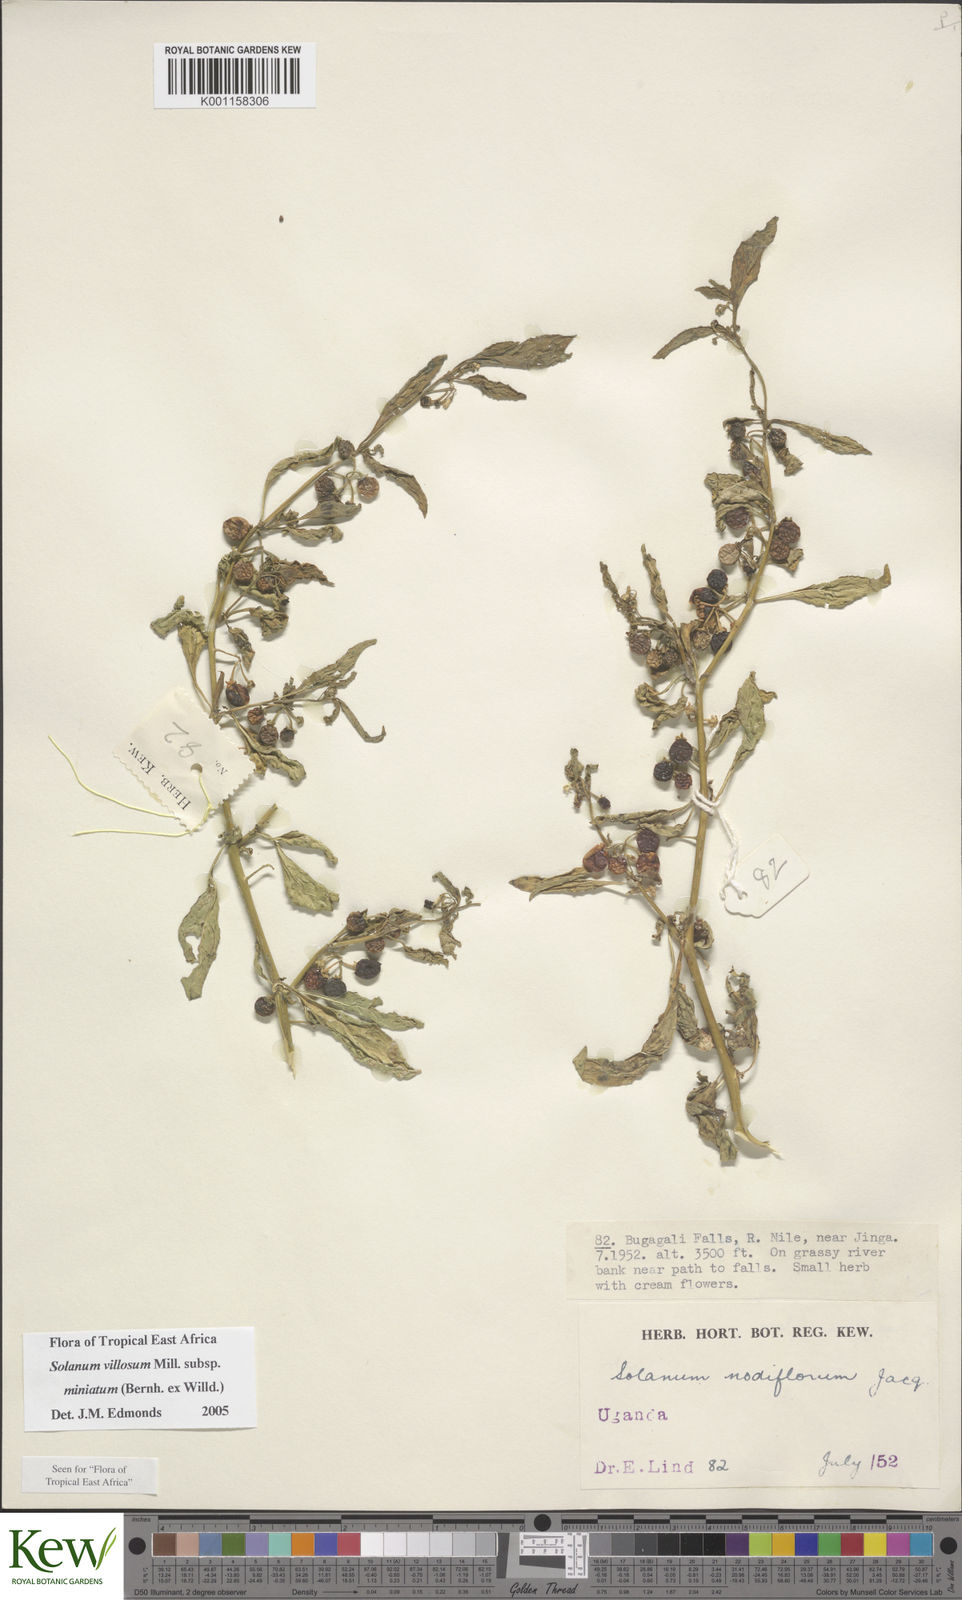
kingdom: Plantae
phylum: Tracheophyta
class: Magnoliopsida
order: Solanales
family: Solanaceae
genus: Solanum
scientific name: Solanum villosum
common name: Red nightshade
